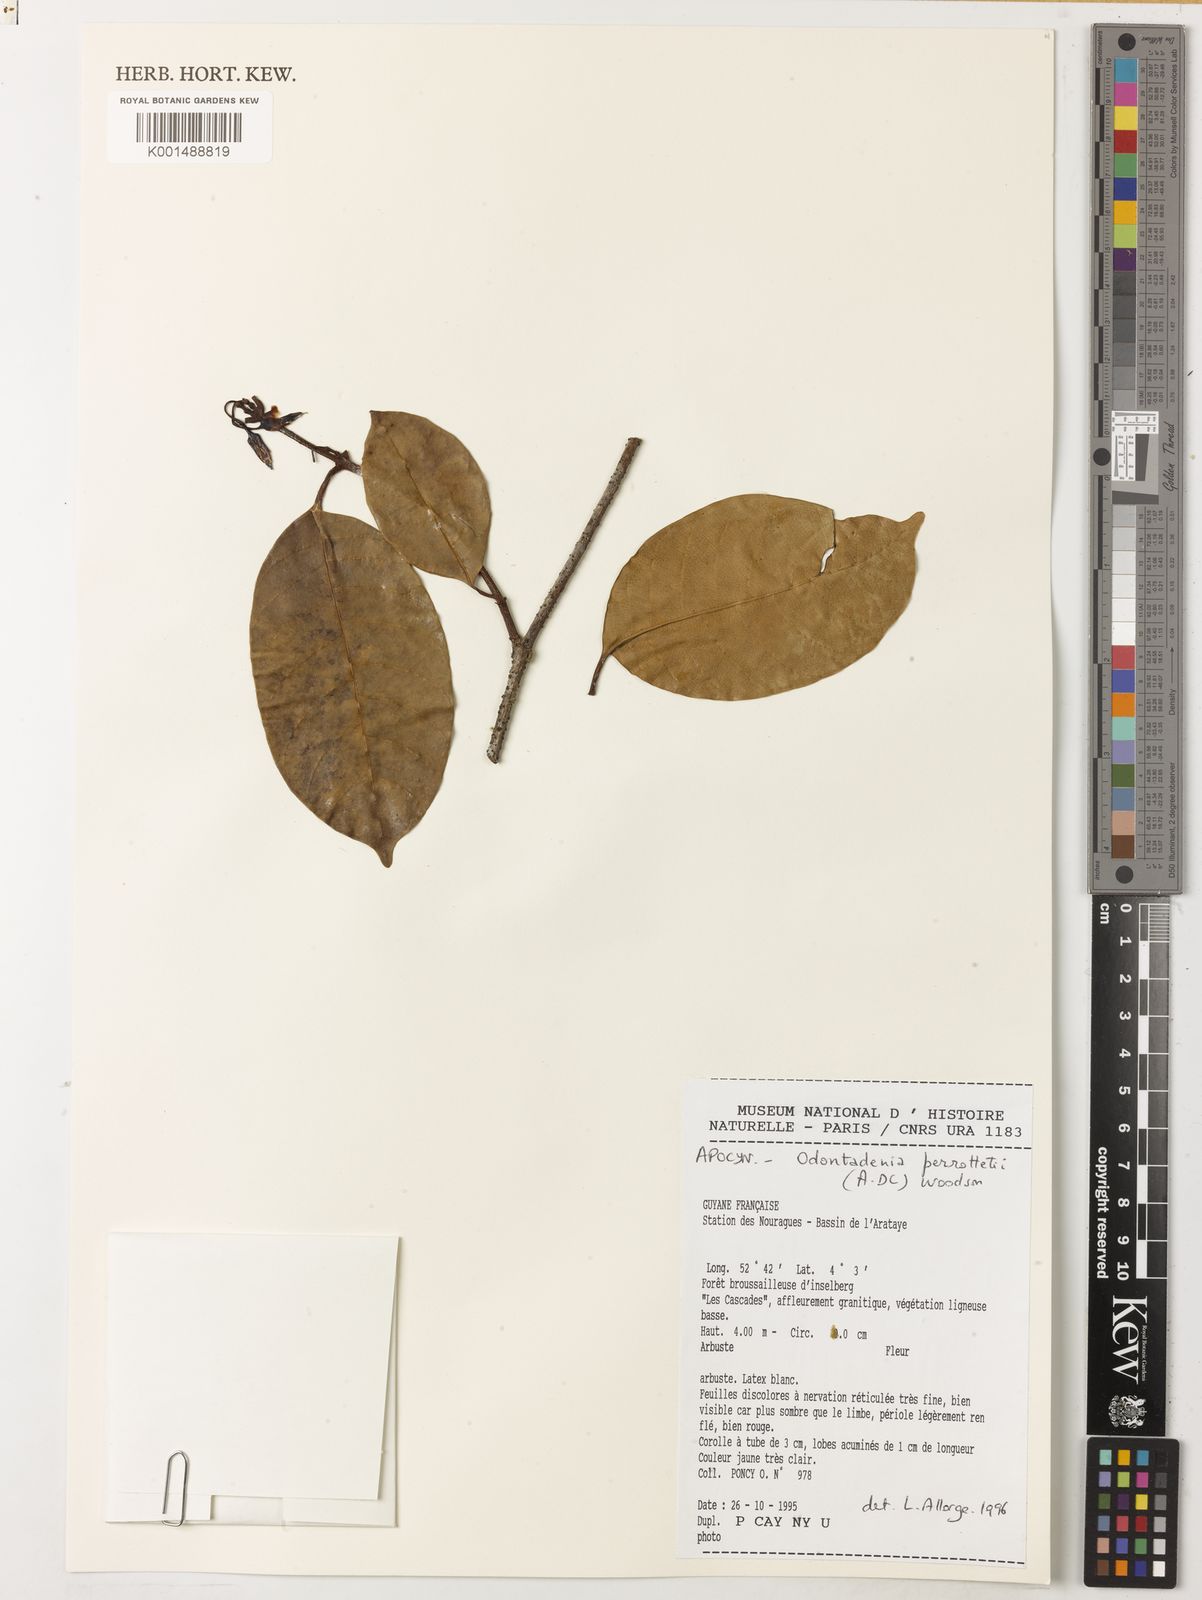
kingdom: Plantae
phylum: Tracheophyta
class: Magnoliopsida
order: Gentianales
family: Apocynaceae
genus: Odontadenia
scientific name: Odontadenia perrottetii
